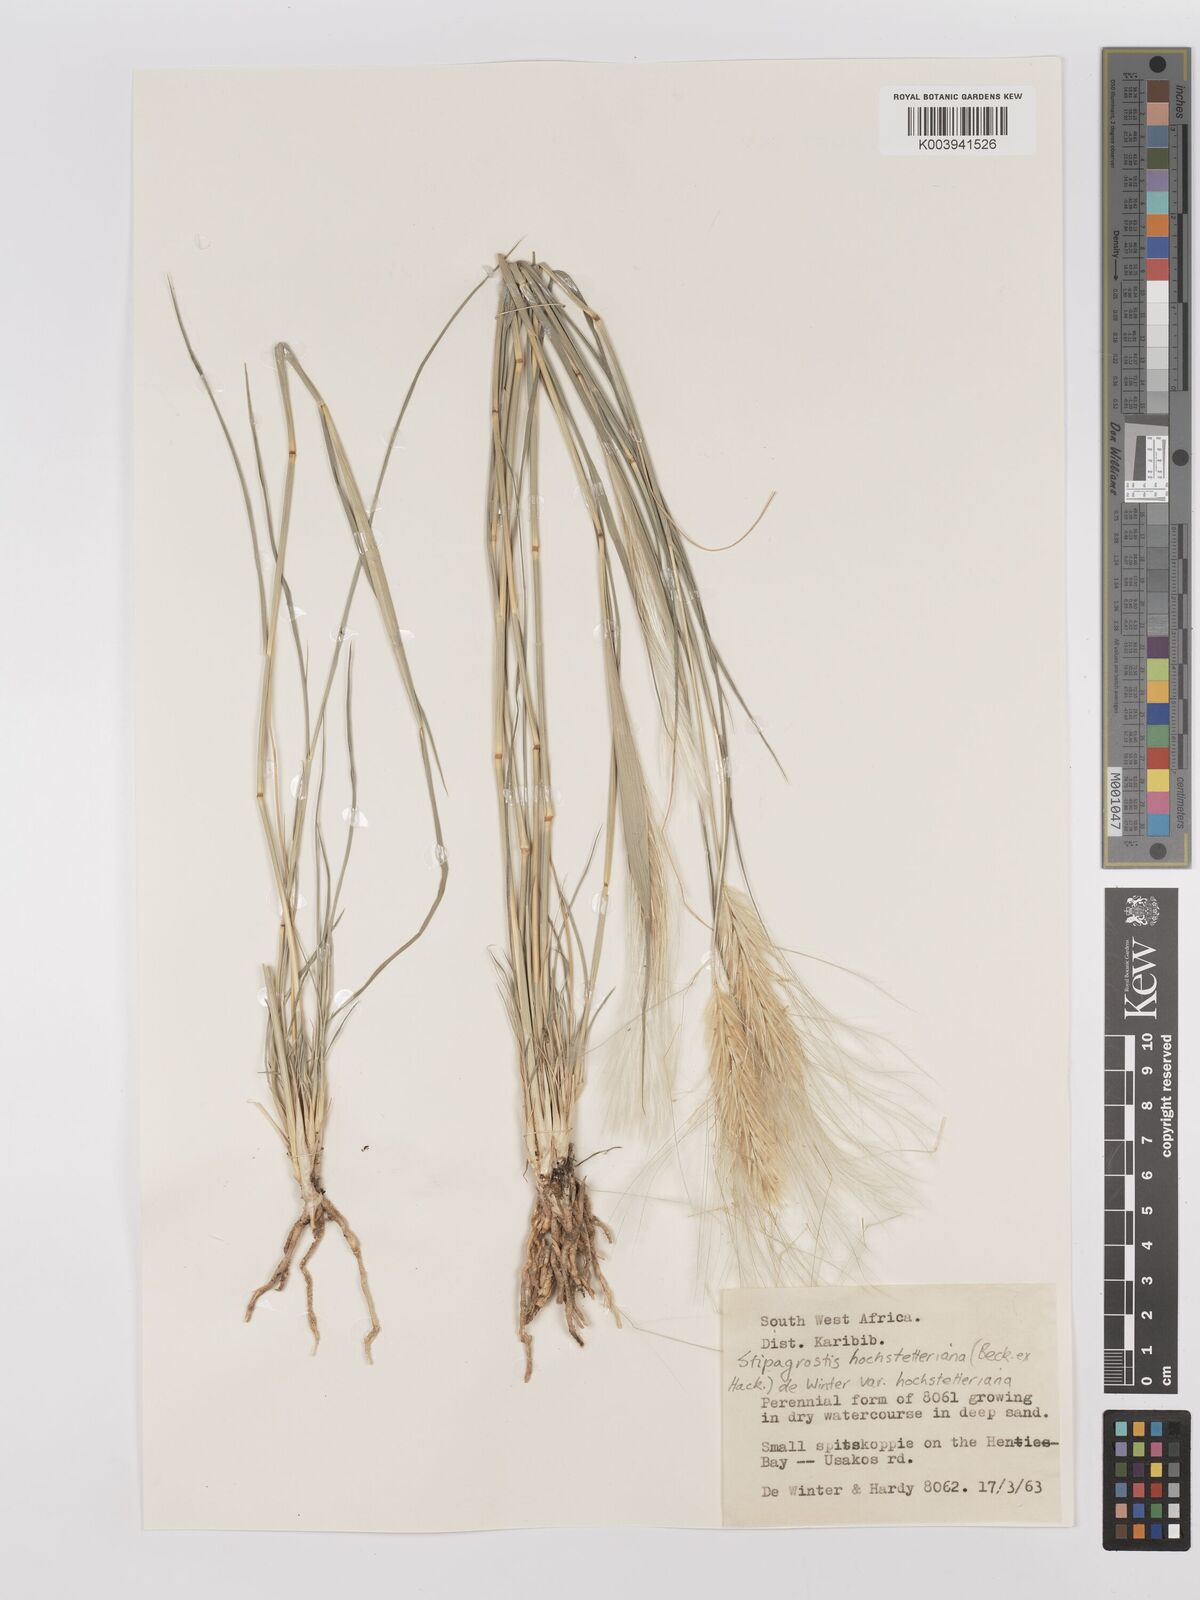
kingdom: Plantae
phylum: Tracheophyta
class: Liliopsida
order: Poales
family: Poaceae
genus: Stipagrostis
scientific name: Stipagrostis hochstetteriana
